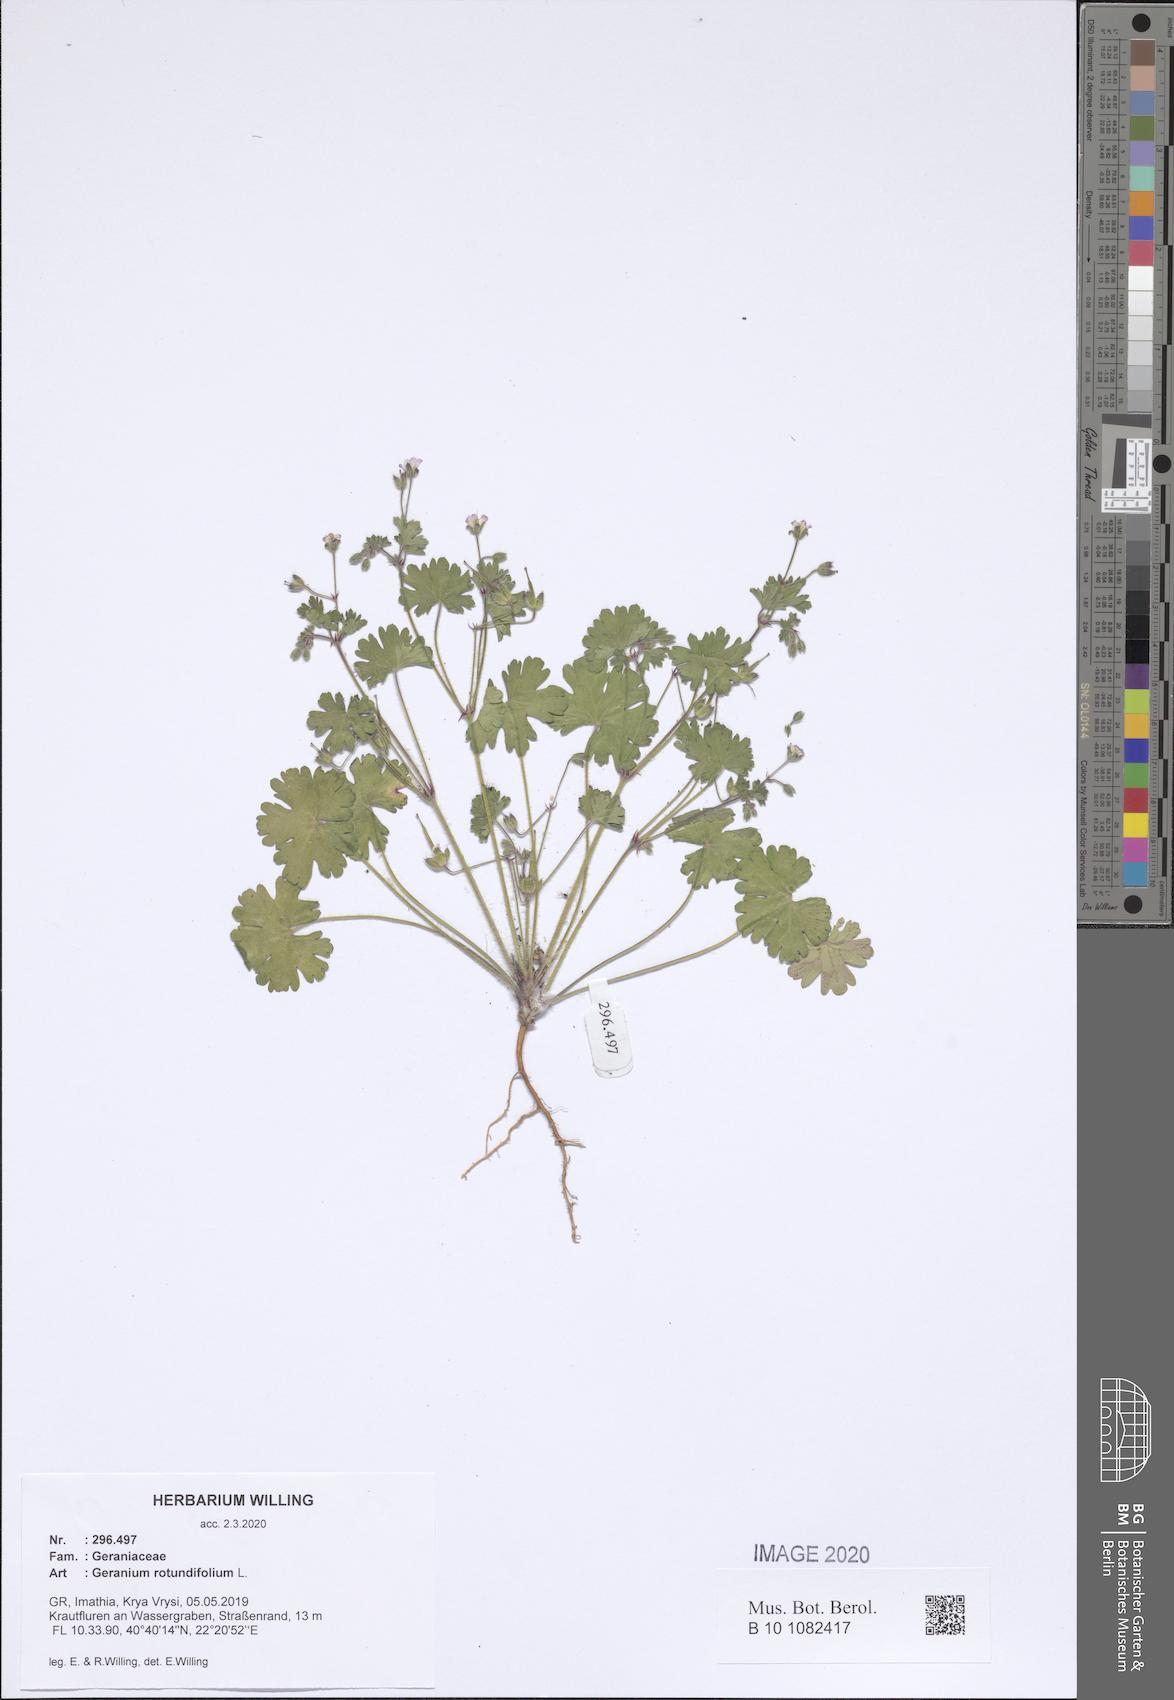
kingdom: Plantae
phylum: Tracheophyta
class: Magnoliopsida
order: Geraniales
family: Geraniaceae
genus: Geranium
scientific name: Geranium rotundifolium
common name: Round-leaved crane's-bill
